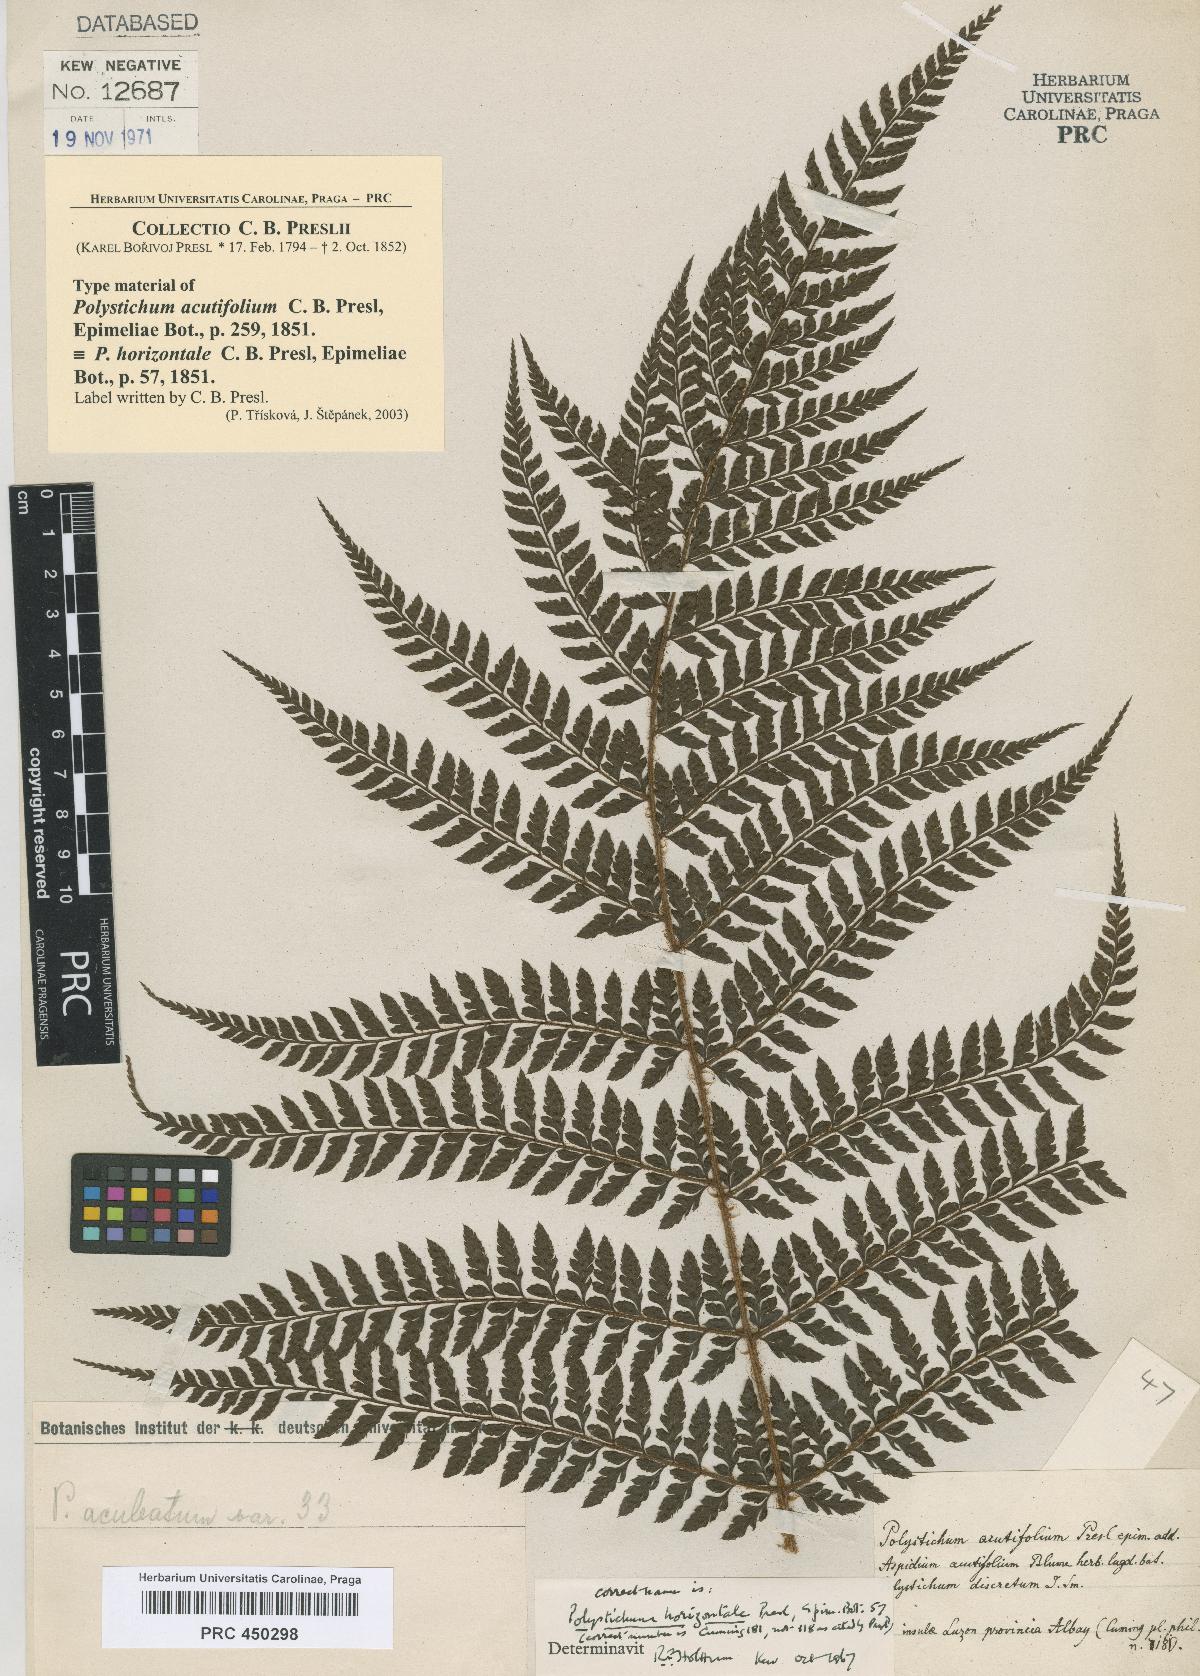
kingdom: Plantae
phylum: Tracheophyta
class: Polypodiopsida
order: Polypodiales
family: Dryopteridaceae
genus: Polystichum
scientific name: Polystichum moluccense
